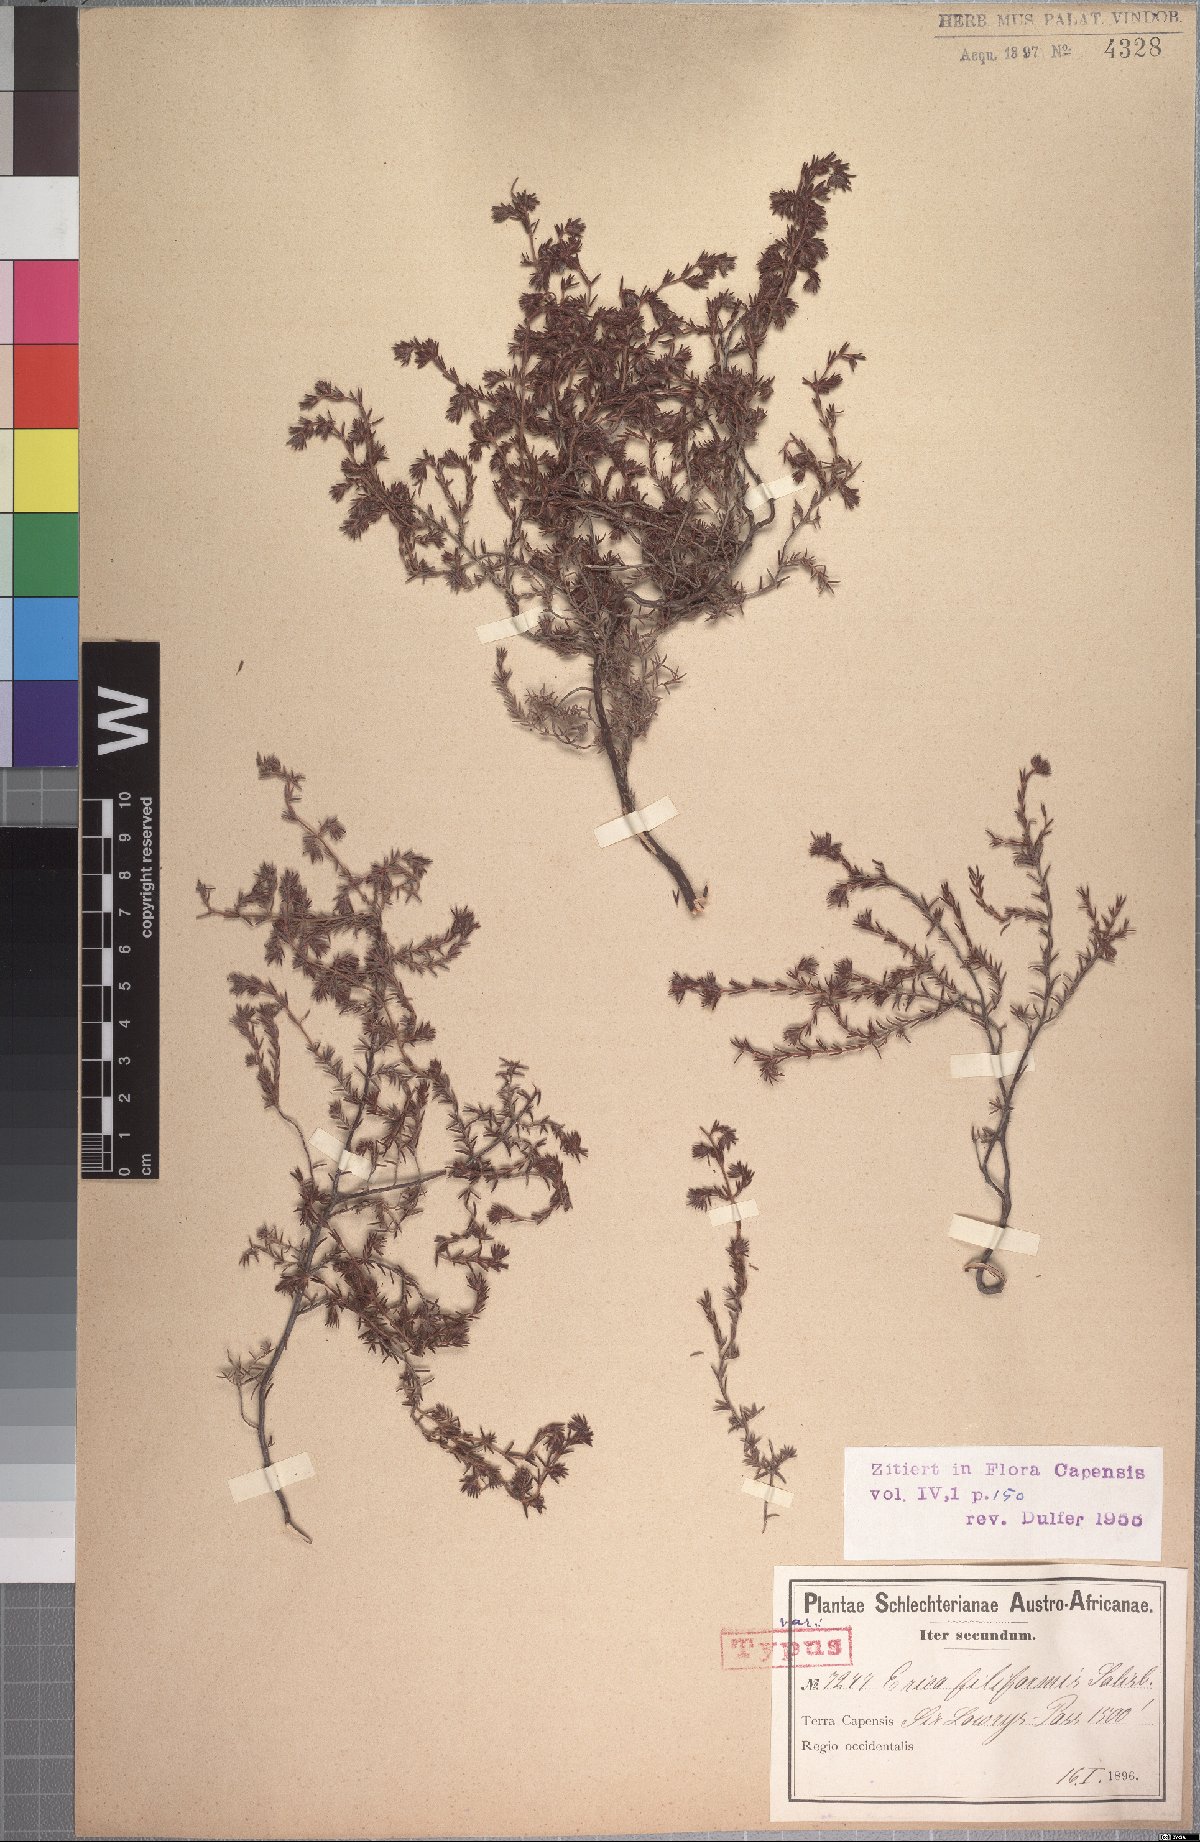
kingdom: Plantae
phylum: Tracheophyta
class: Magnoliopsida
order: Ericales
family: Ericaceae
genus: Erica
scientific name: Erica filiformis
